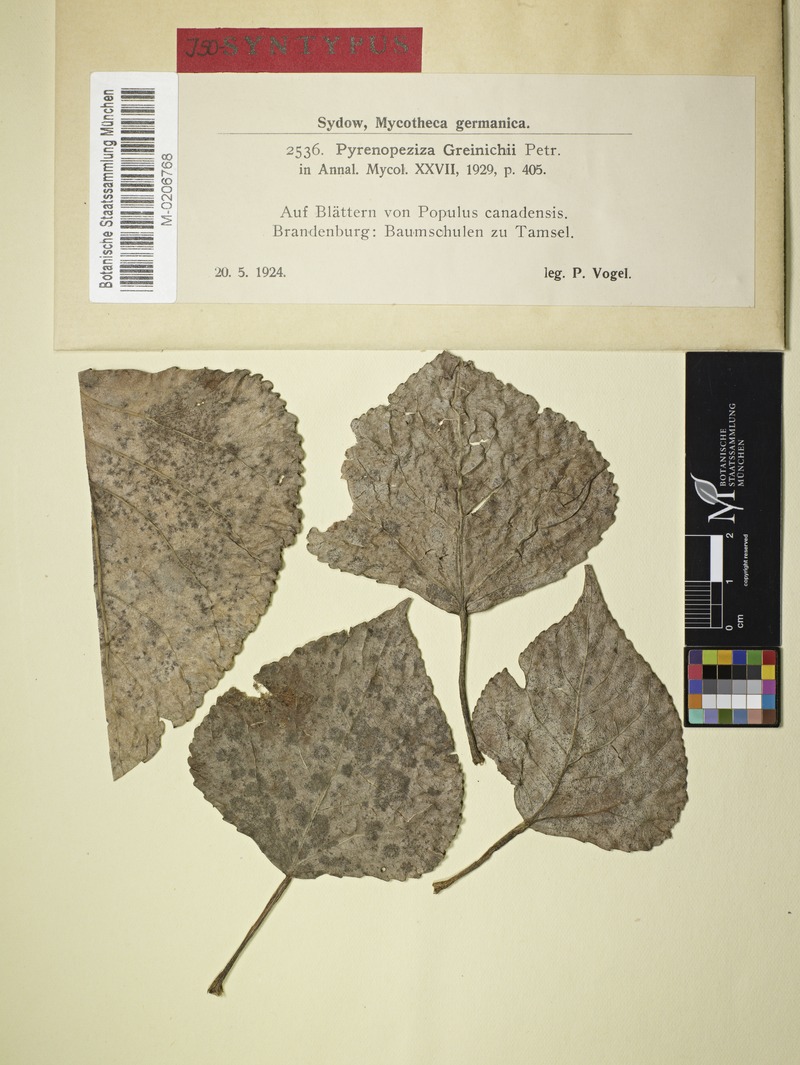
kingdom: Plantae
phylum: Tracheophyta
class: Magnoliopsida
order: Malpighiales
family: Salicaceae
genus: Populus
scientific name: Populus canadensis
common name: Carolina poplar
